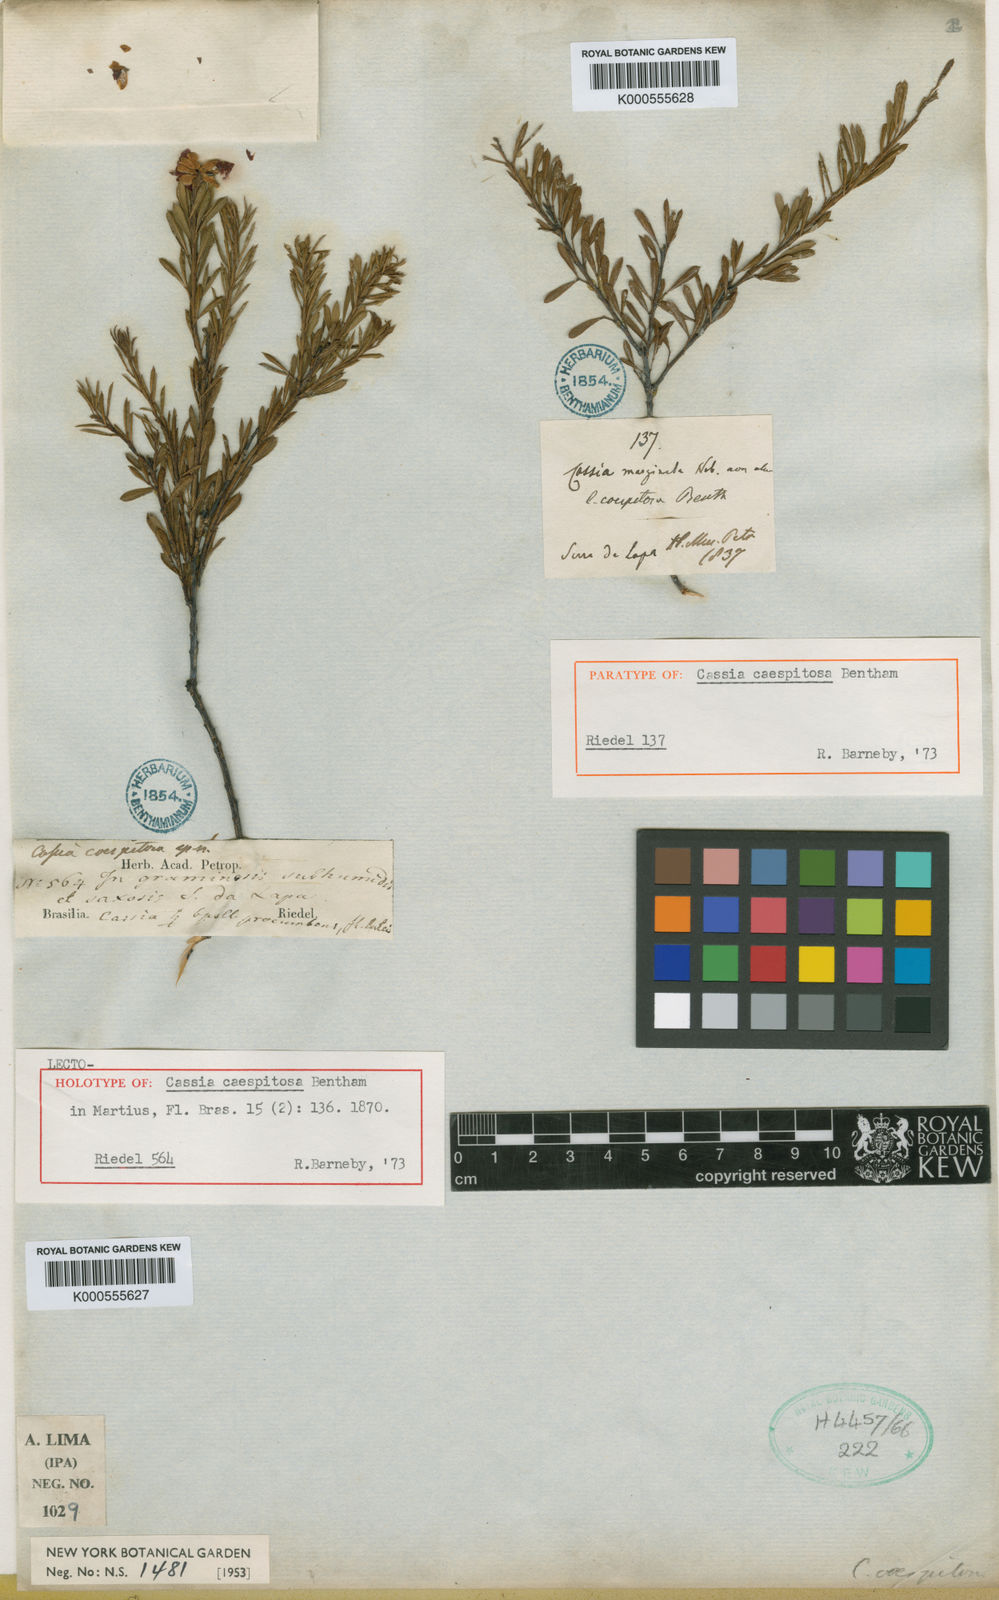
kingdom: Plantae
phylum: Tracheophyta
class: Magnoliopsida
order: Fabales
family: Fabaceae
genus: Chamaecrista
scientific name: Chamaecrista dentata
